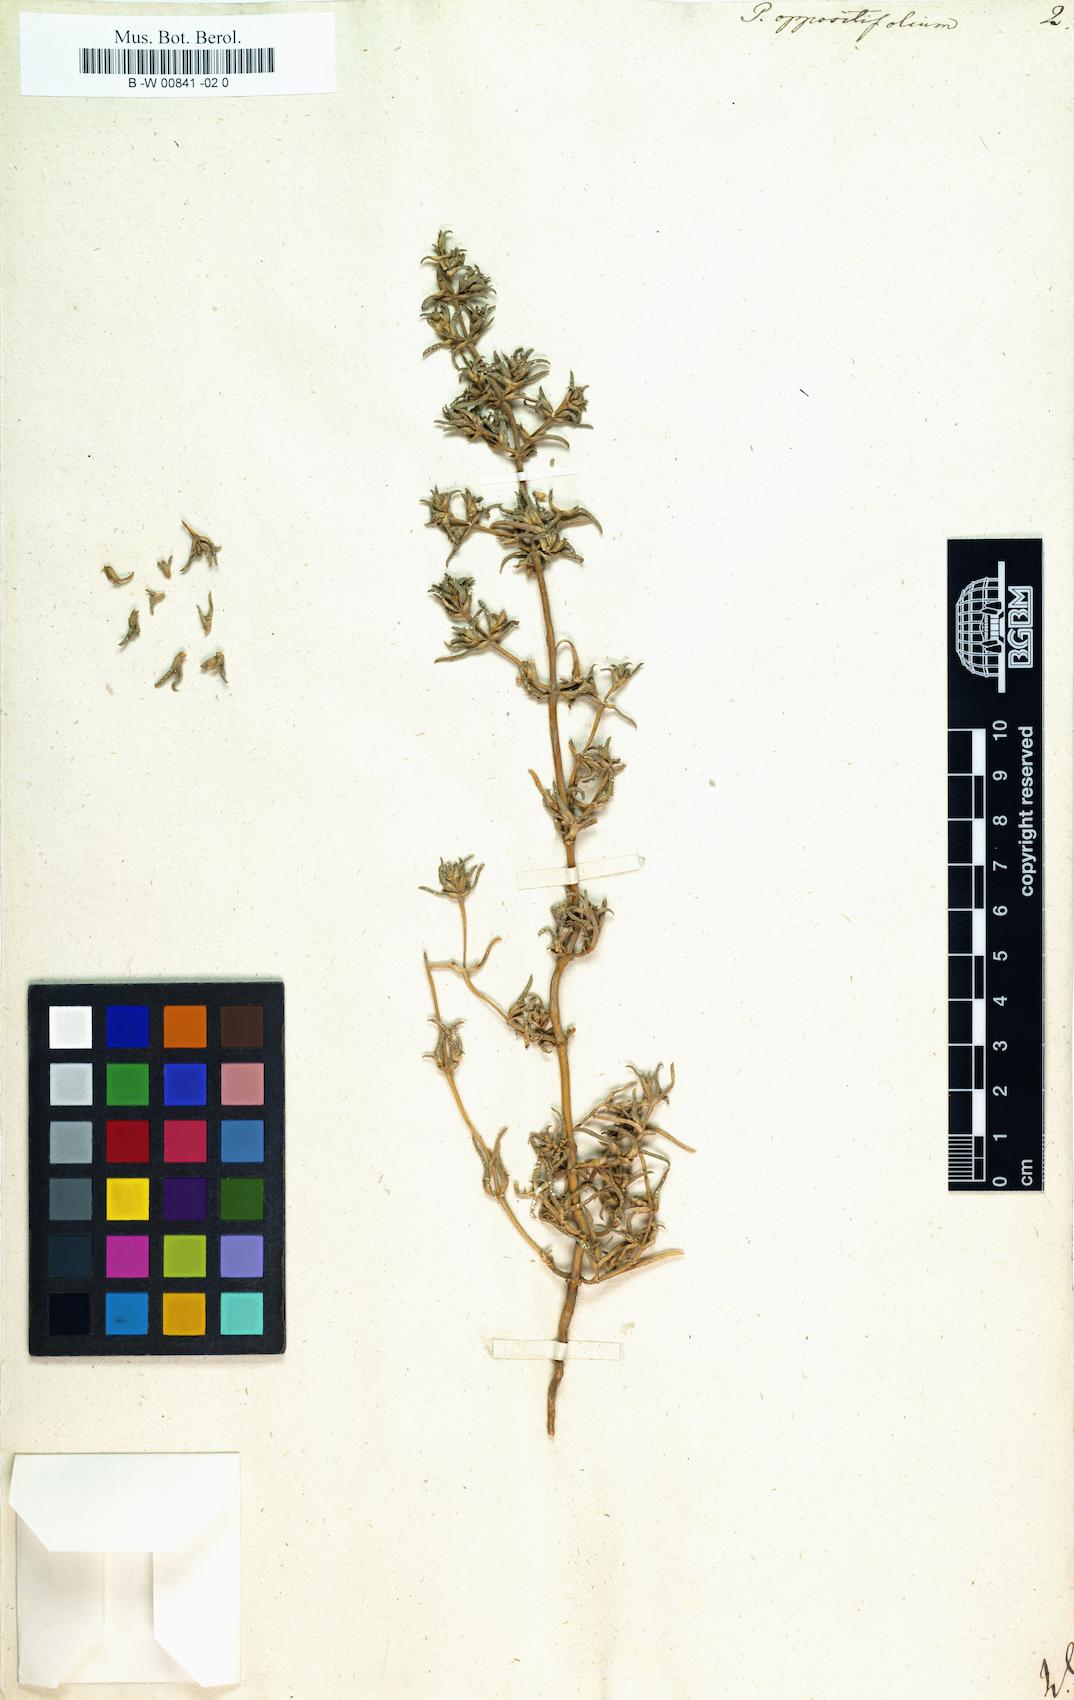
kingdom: Plantae
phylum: Tracheophyta
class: Magnoliopsida
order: Caryophyllales
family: Amaranthaceae
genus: Petrosimonia
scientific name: Petrosimonia oppositifolia
